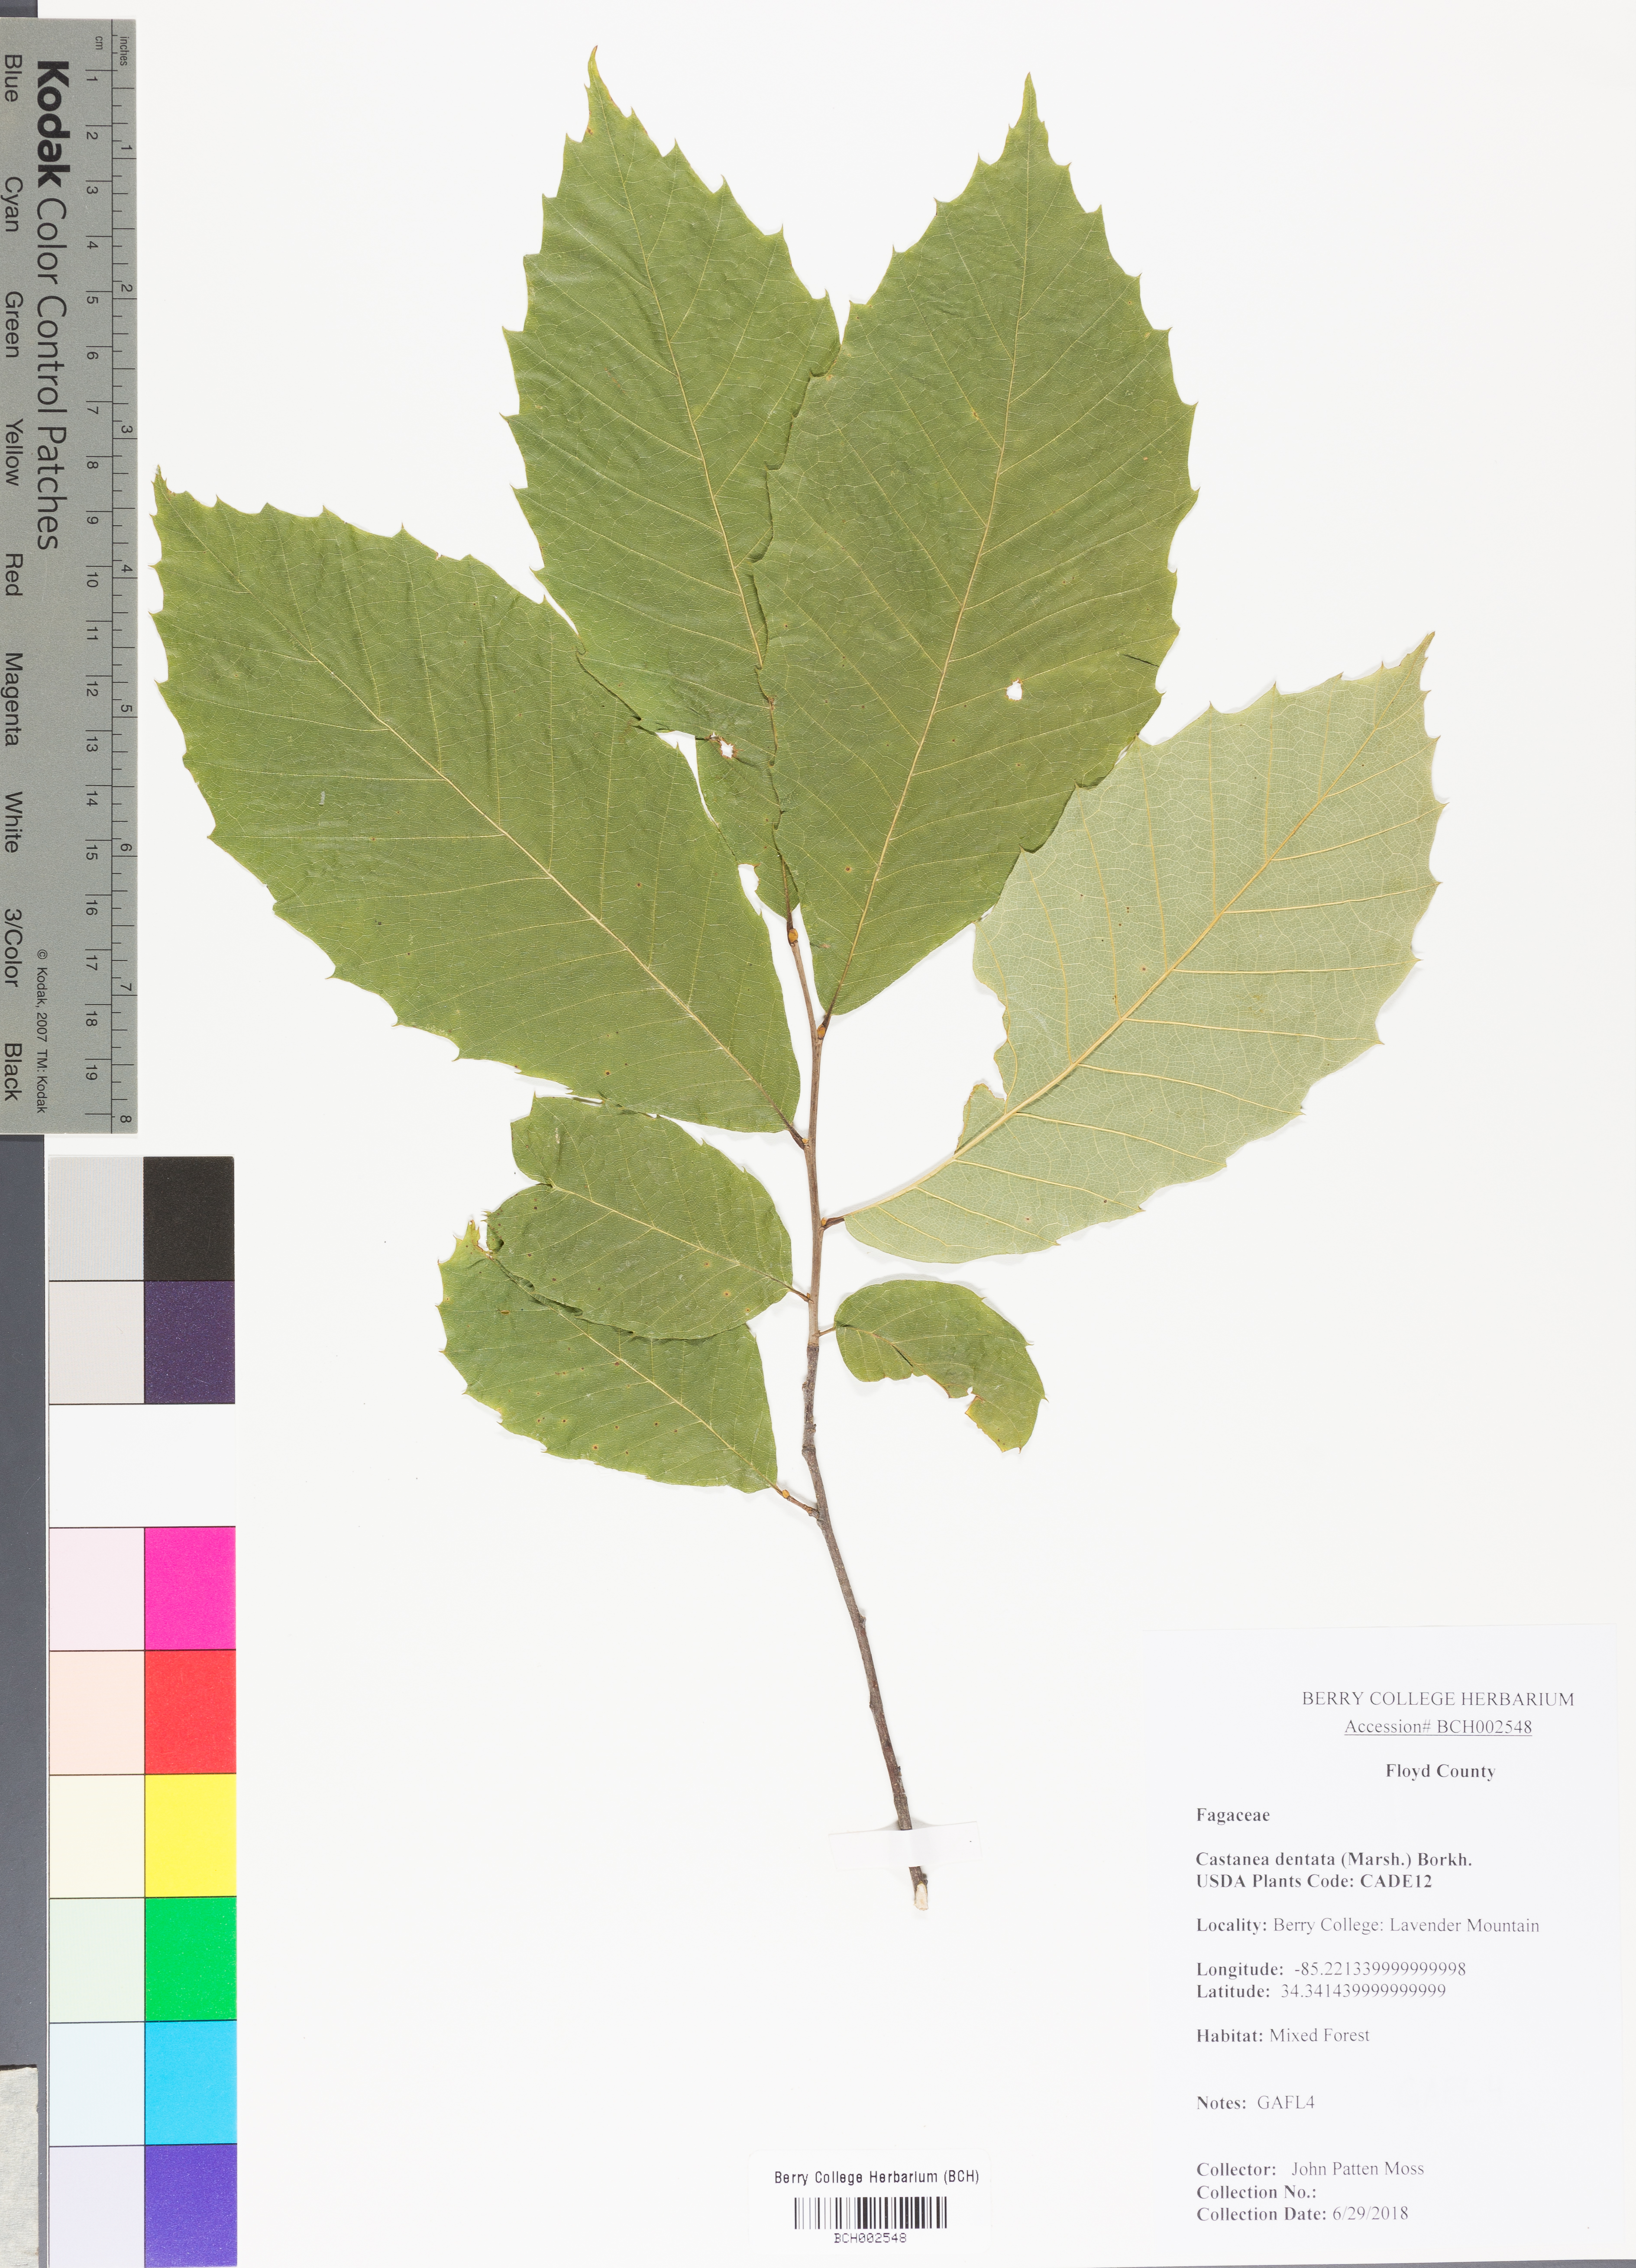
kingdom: Plantae
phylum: Tracheophyta
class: Magnoliopsida
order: Fagales
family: Fagaceae
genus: Castanea
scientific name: Castanea dentata
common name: American chestnut
